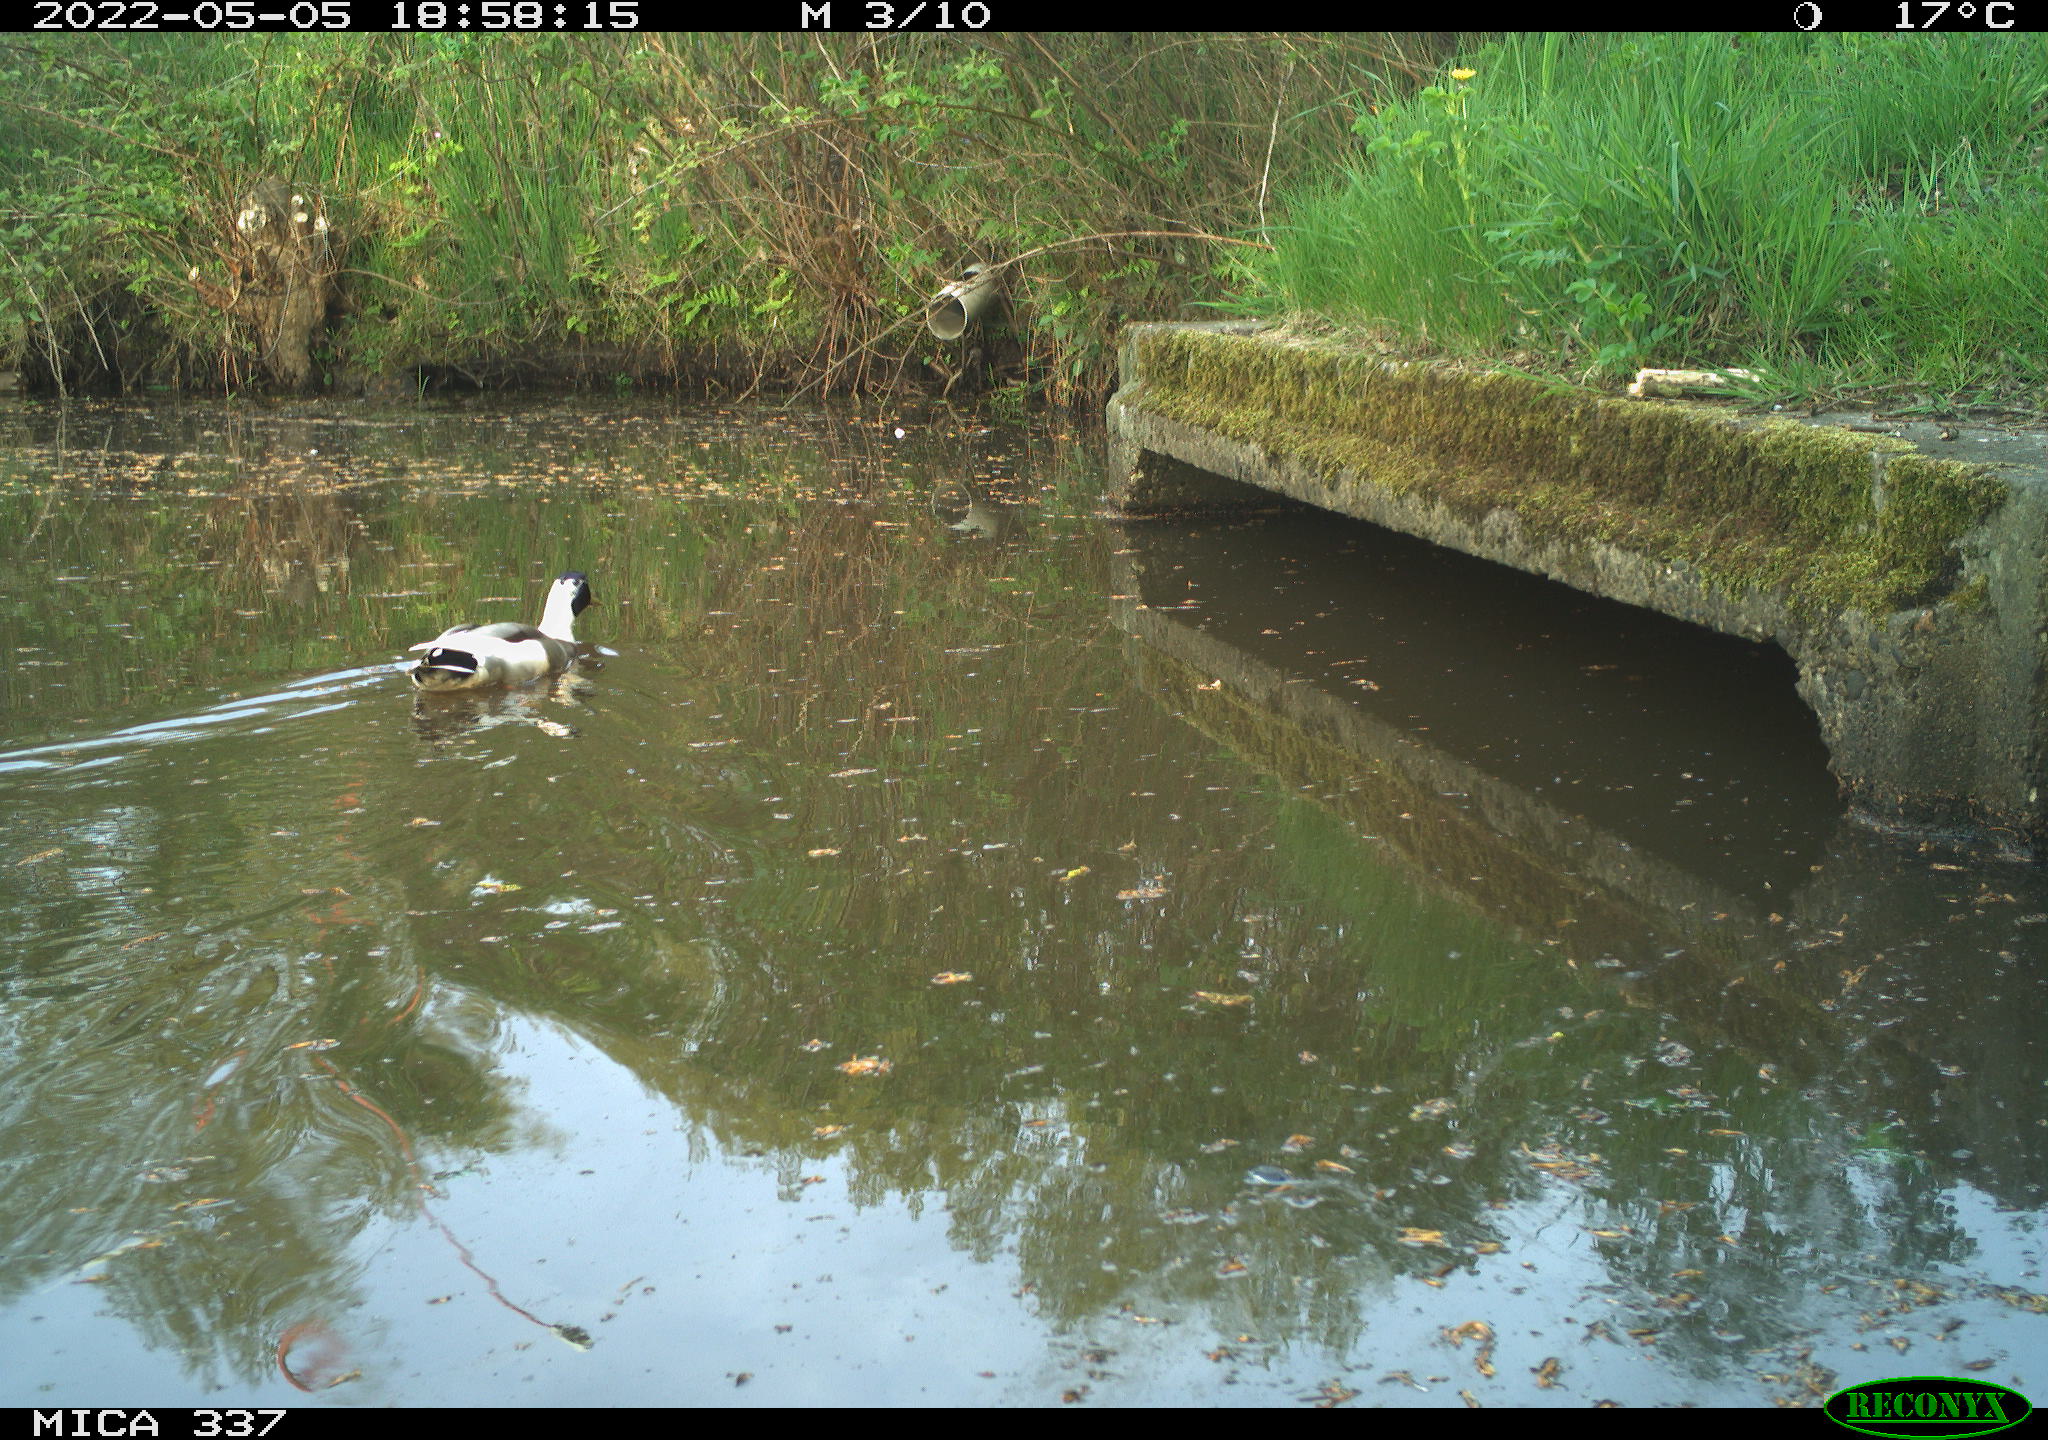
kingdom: Animalia
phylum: Chordata
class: Aves
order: Anseriformes
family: Anatidae
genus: Anas
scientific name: Anas platyrhynchos
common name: Mallard
